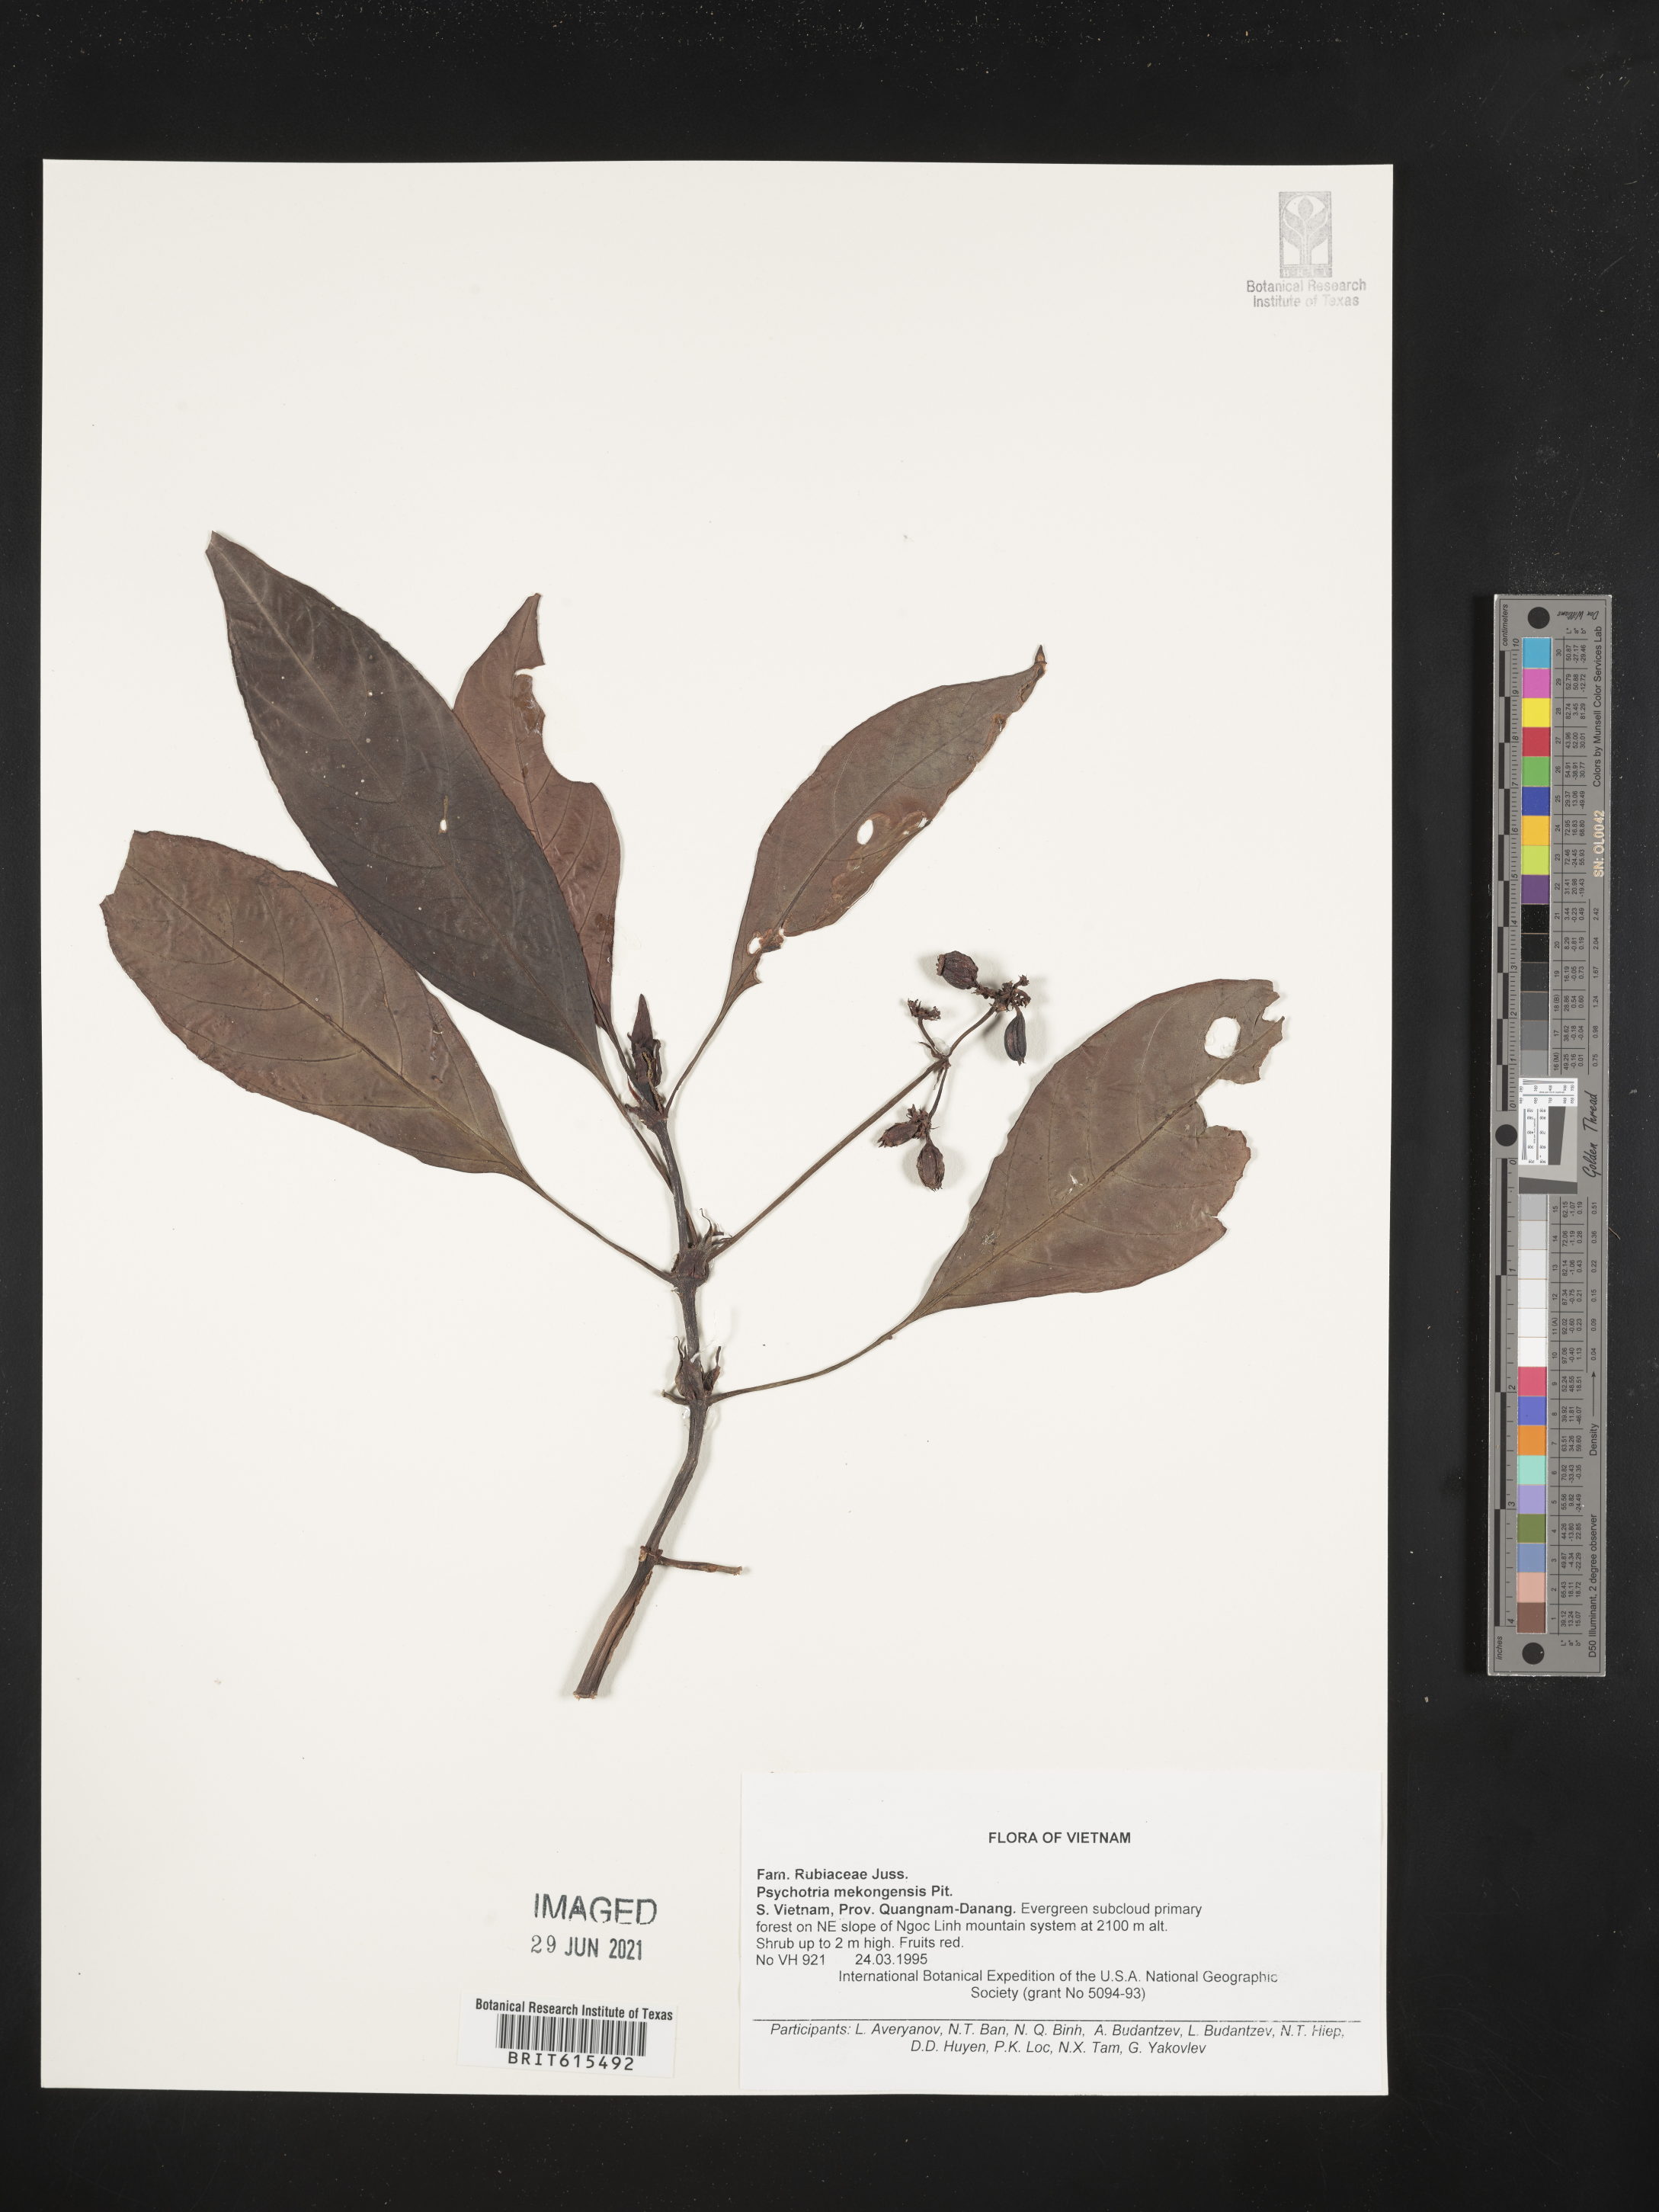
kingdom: Plantae
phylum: Tracheophyta
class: Magnoliopsida
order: Gentianales
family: Rubiaceae
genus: Psychotria
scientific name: Psychotria mekongensis
